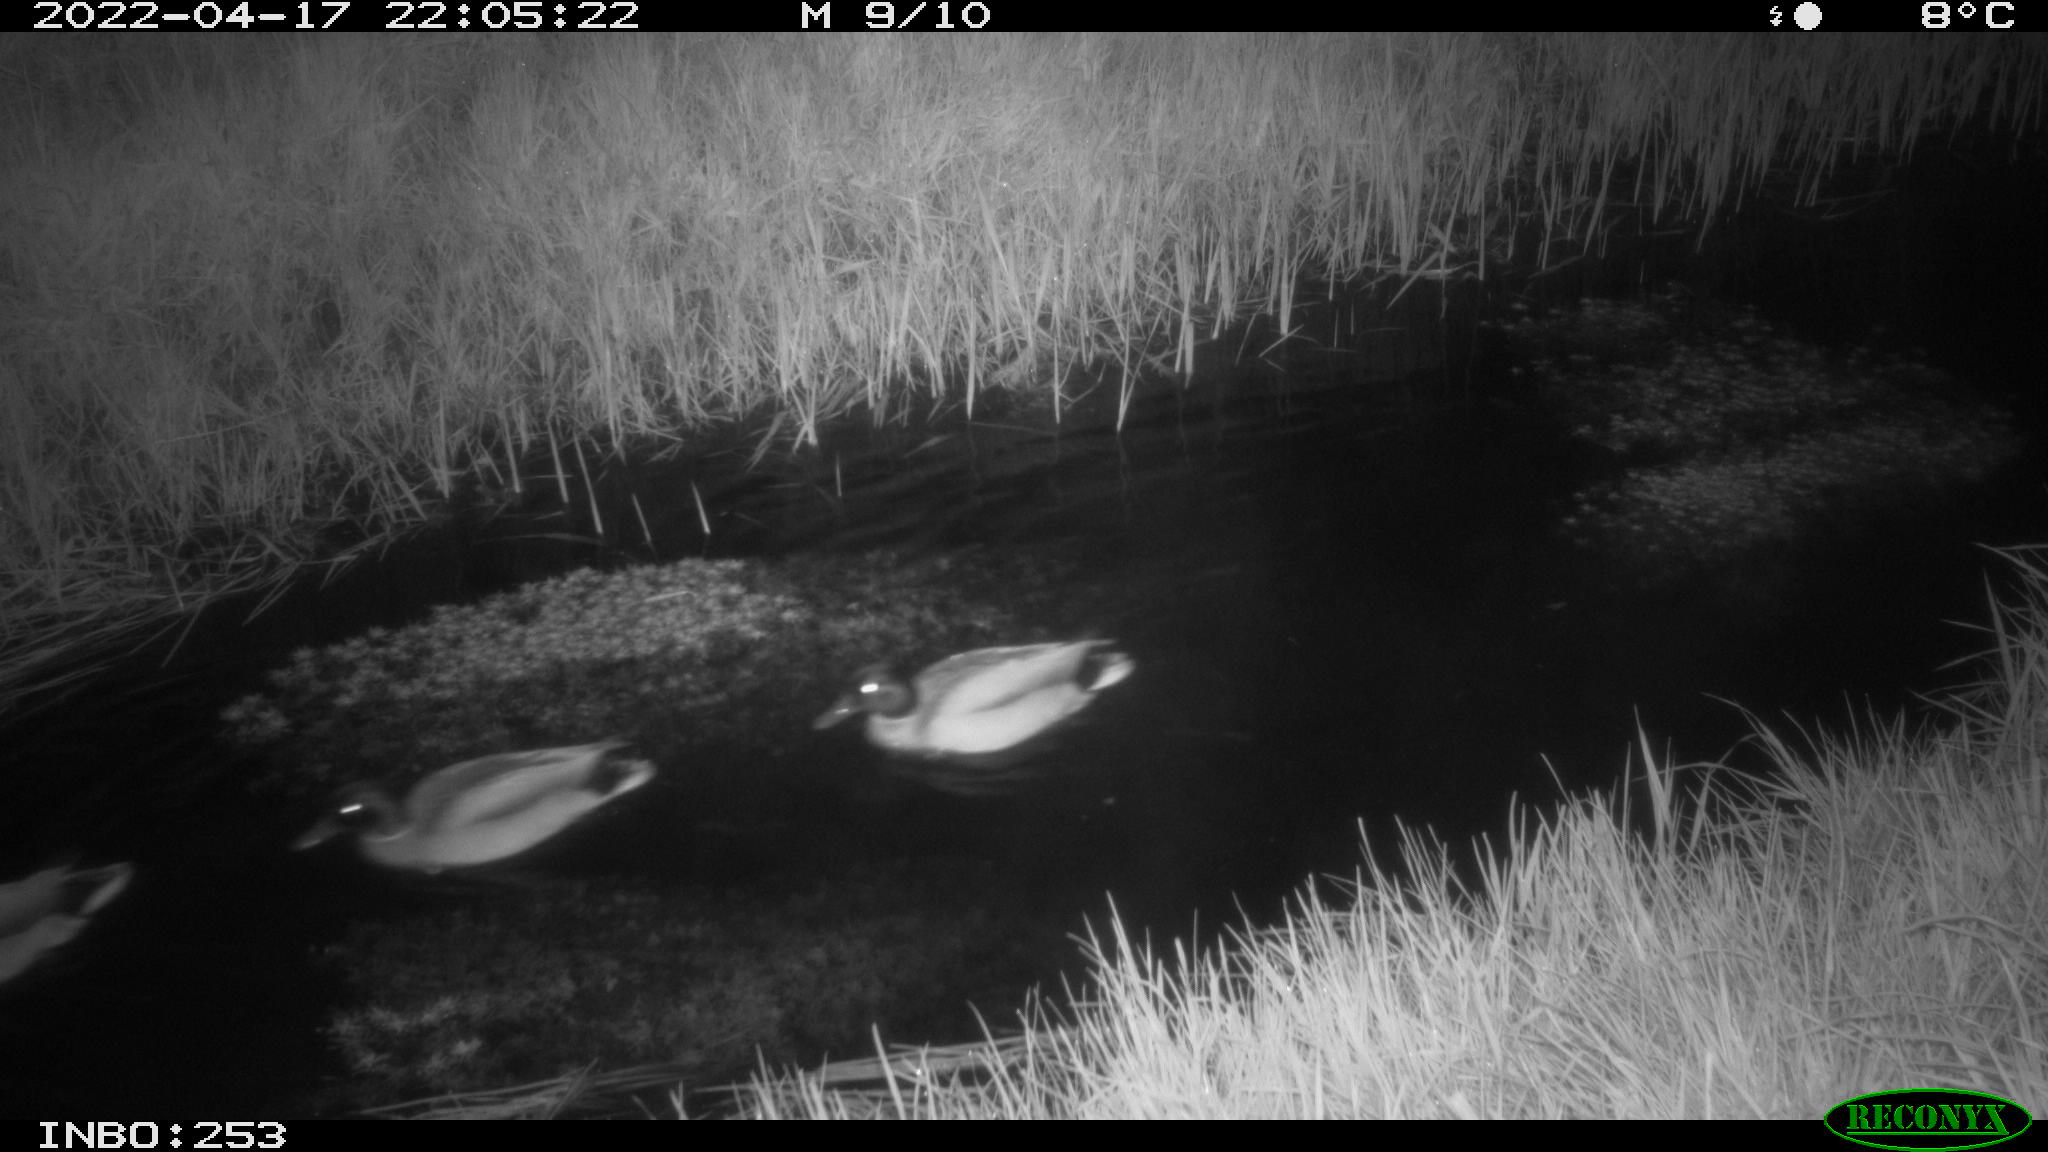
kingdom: Animalia
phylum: Chordata
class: Aves
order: Anseriformes
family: Anatidae
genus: Anas
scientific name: Anas platyrhynchos
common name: Mallard
